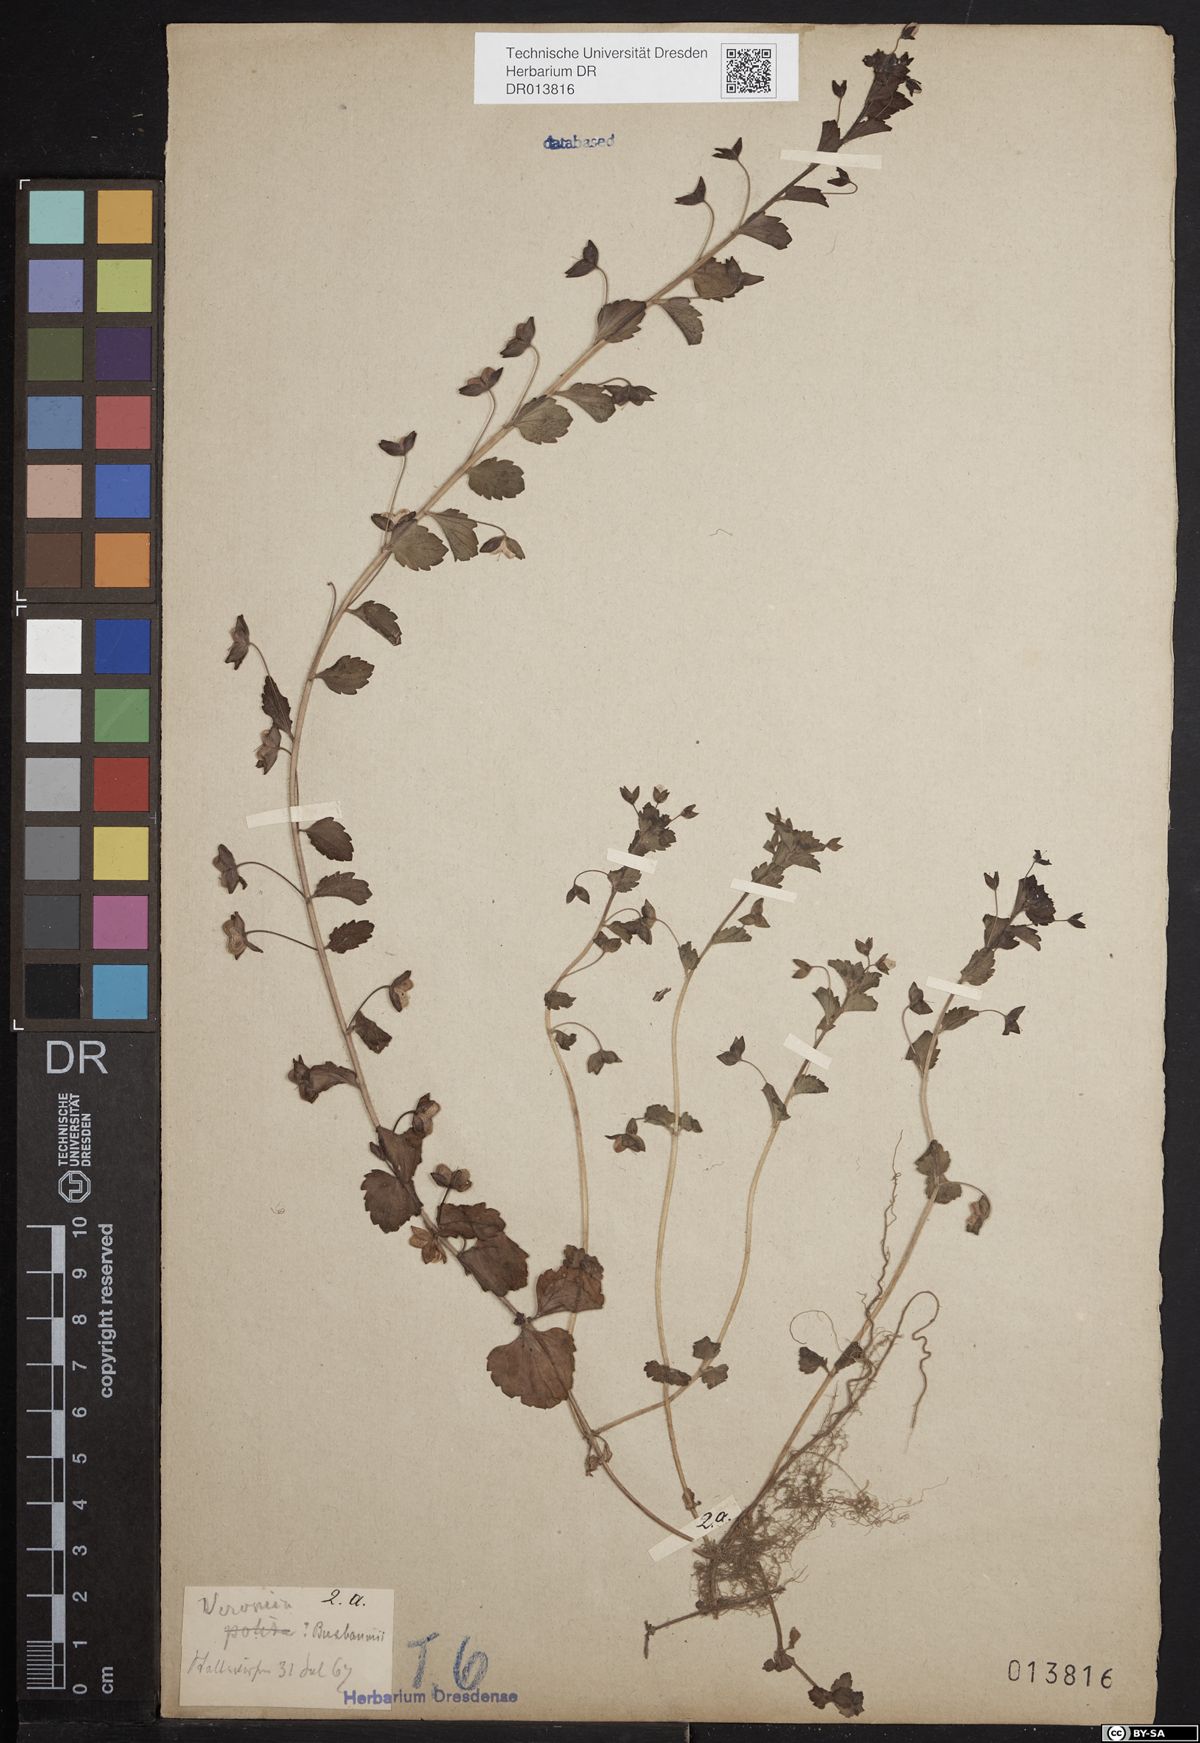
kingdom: Plantae
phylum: Tracheophyta
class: Magnoliopsida
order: Lamiales
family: Plantaginaceae
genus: Veronica
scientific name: Veronica persica
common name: Common field-speedwell
